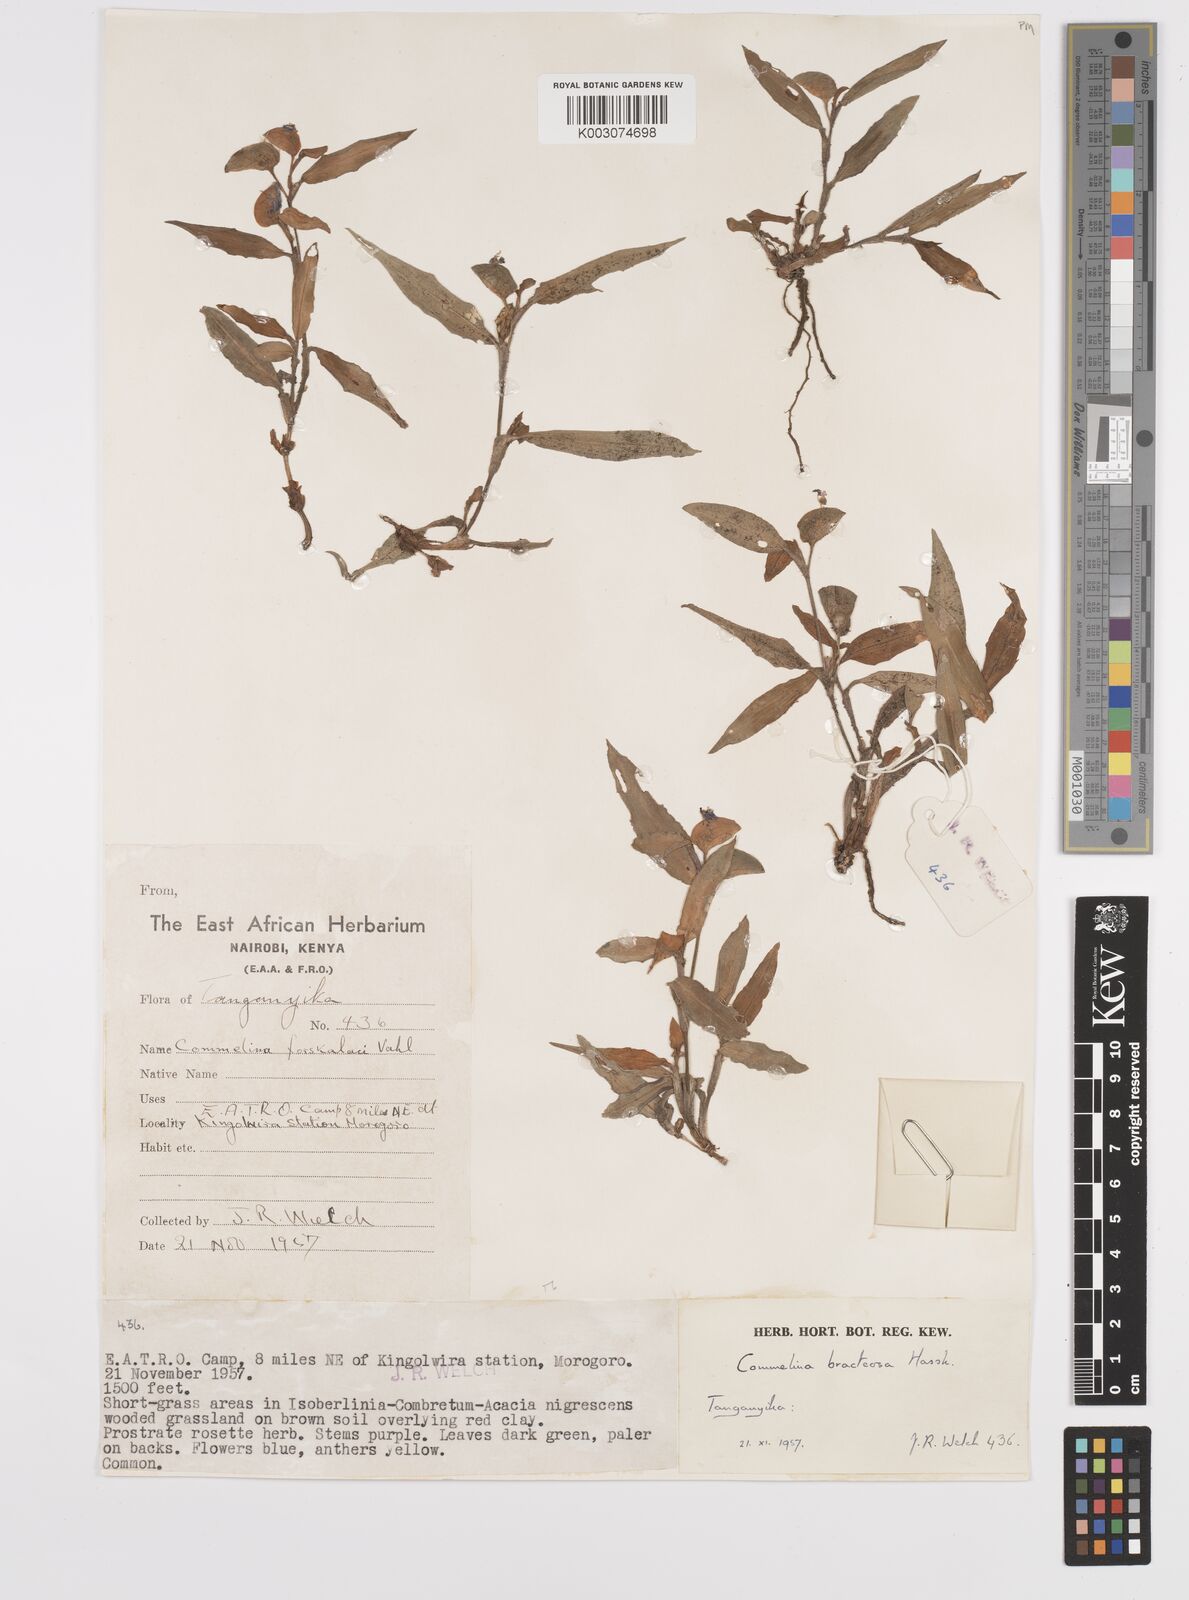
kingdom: Plantae
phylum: Tracheophyta
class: Liliopsida
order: Commelinales
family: Commelinaceae
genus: Commelina
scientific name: Commelina bracteosa
